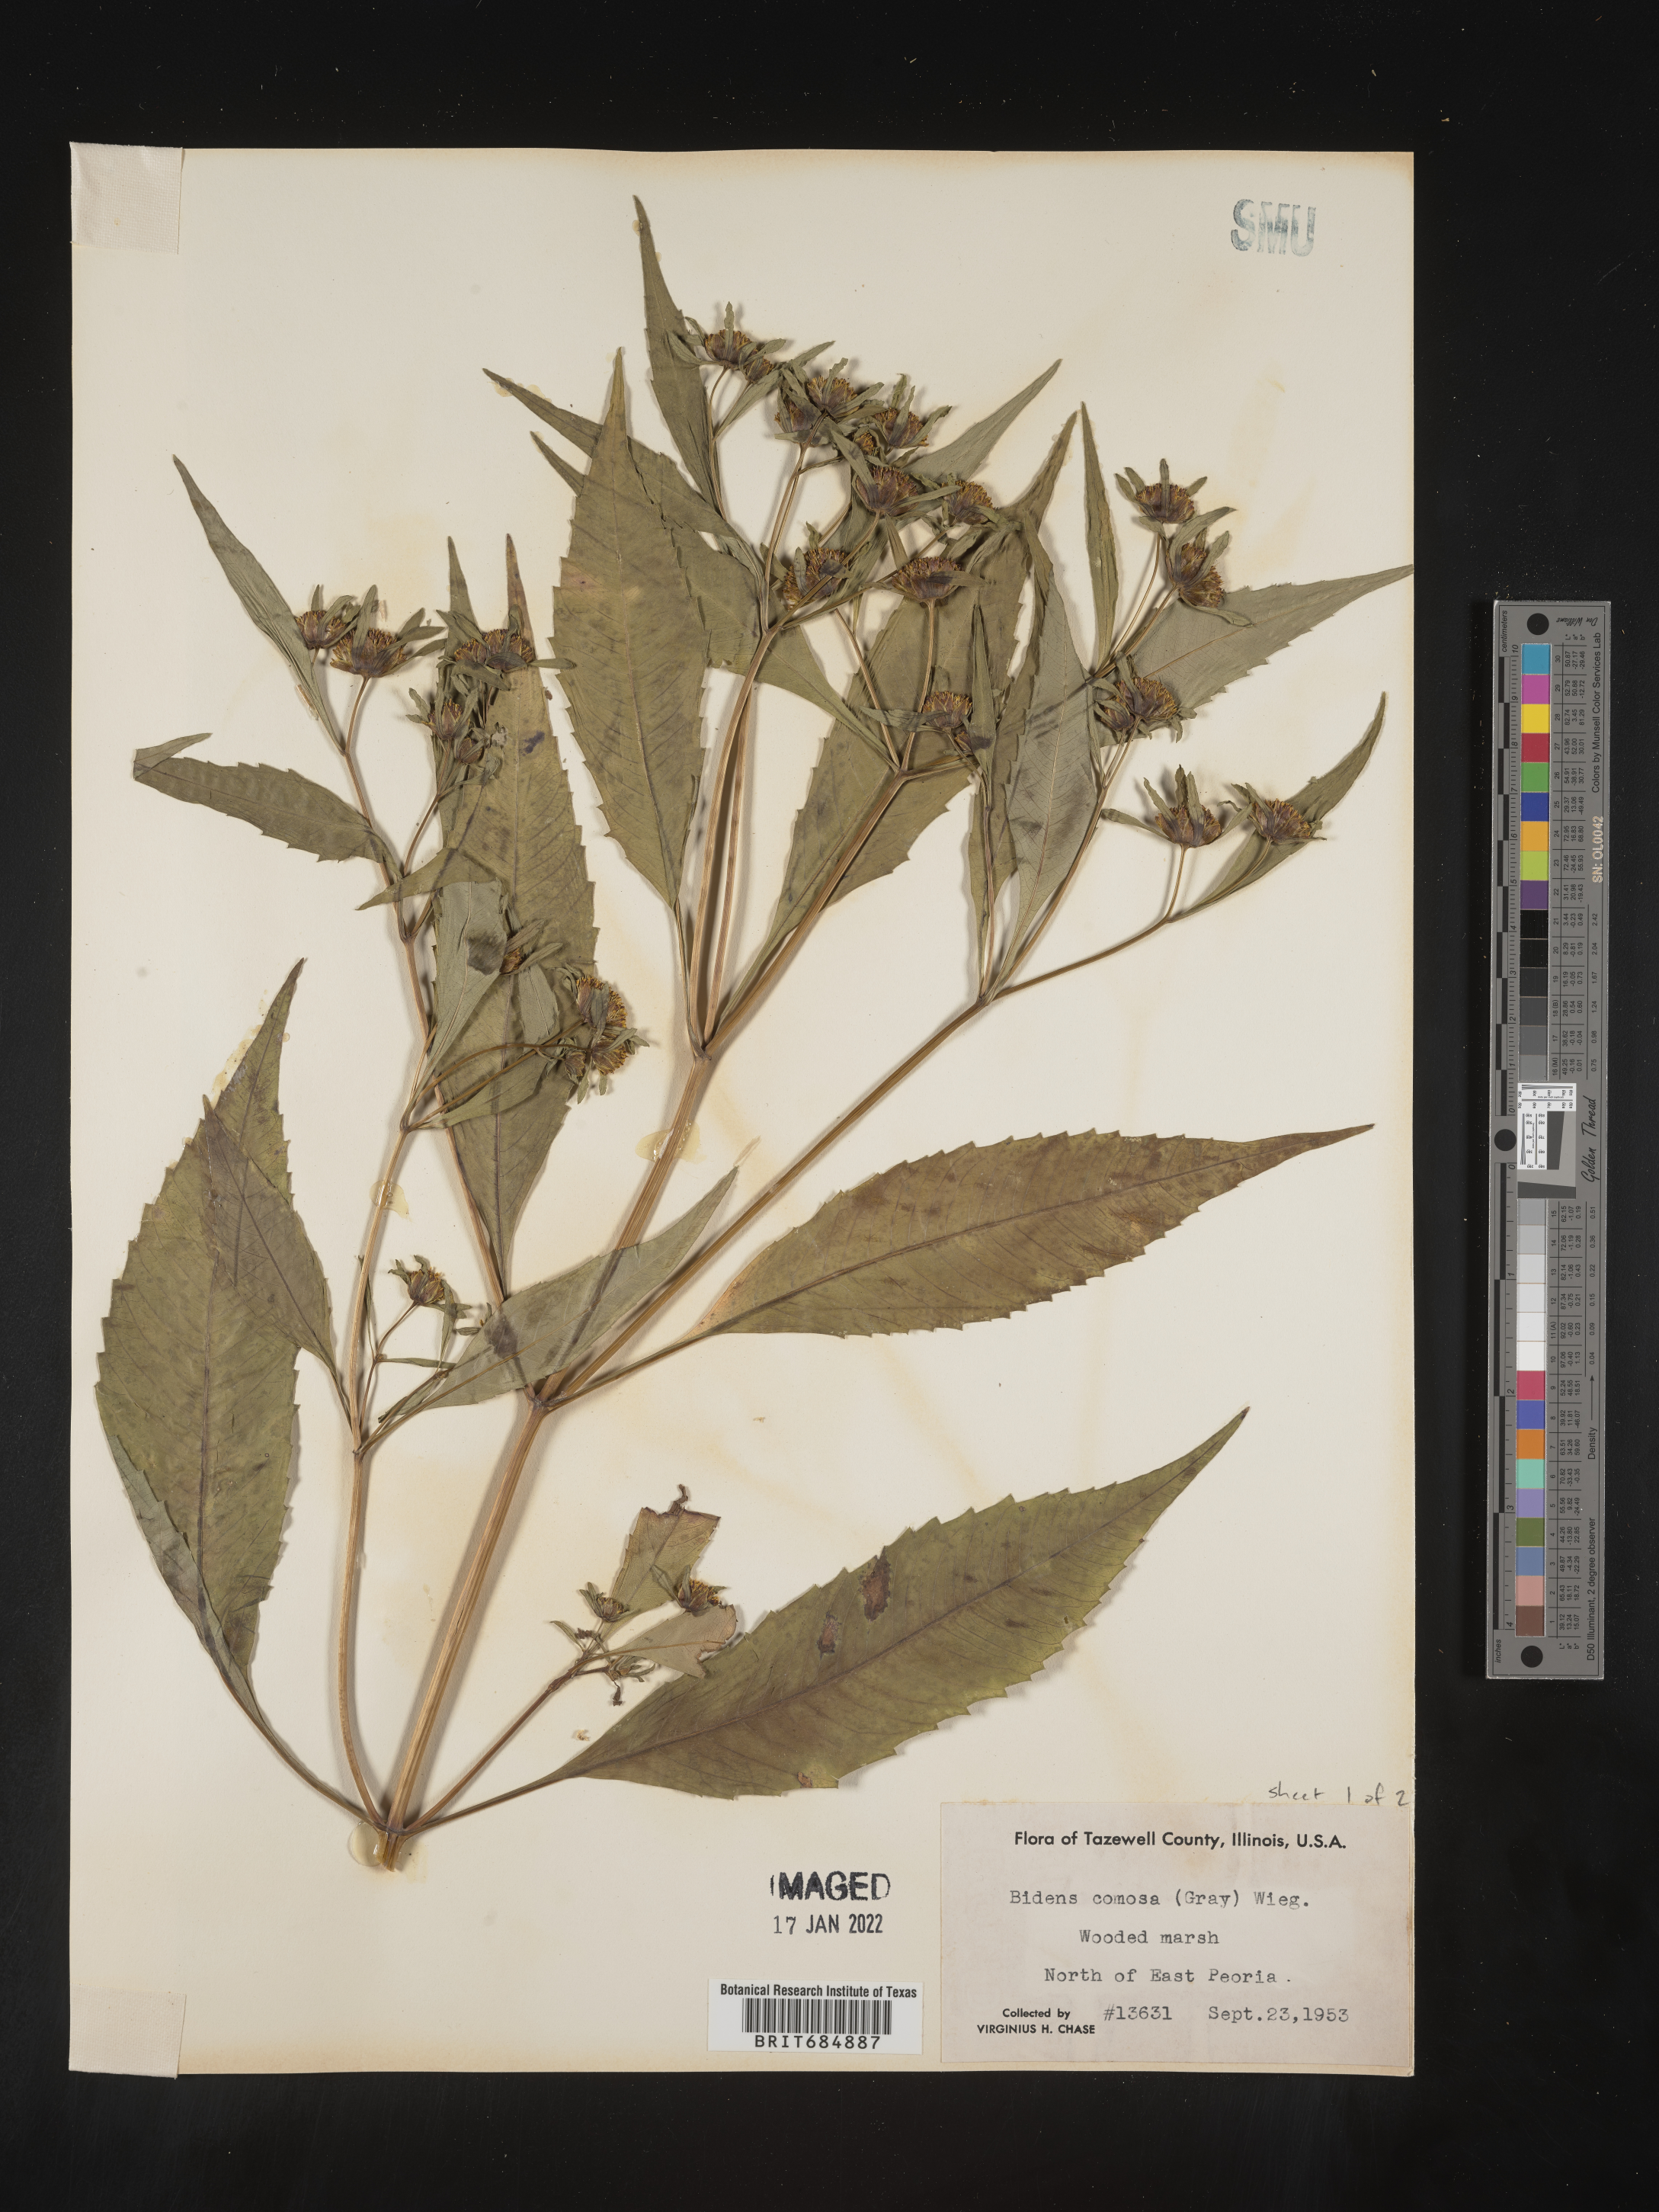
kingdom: Plantae
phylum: Tracheophyta
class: Magnoliopsida
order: Asterales
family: Asteraceae
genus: Bidens
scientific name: Bidens tripartita
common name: Trifid bur-marigold
